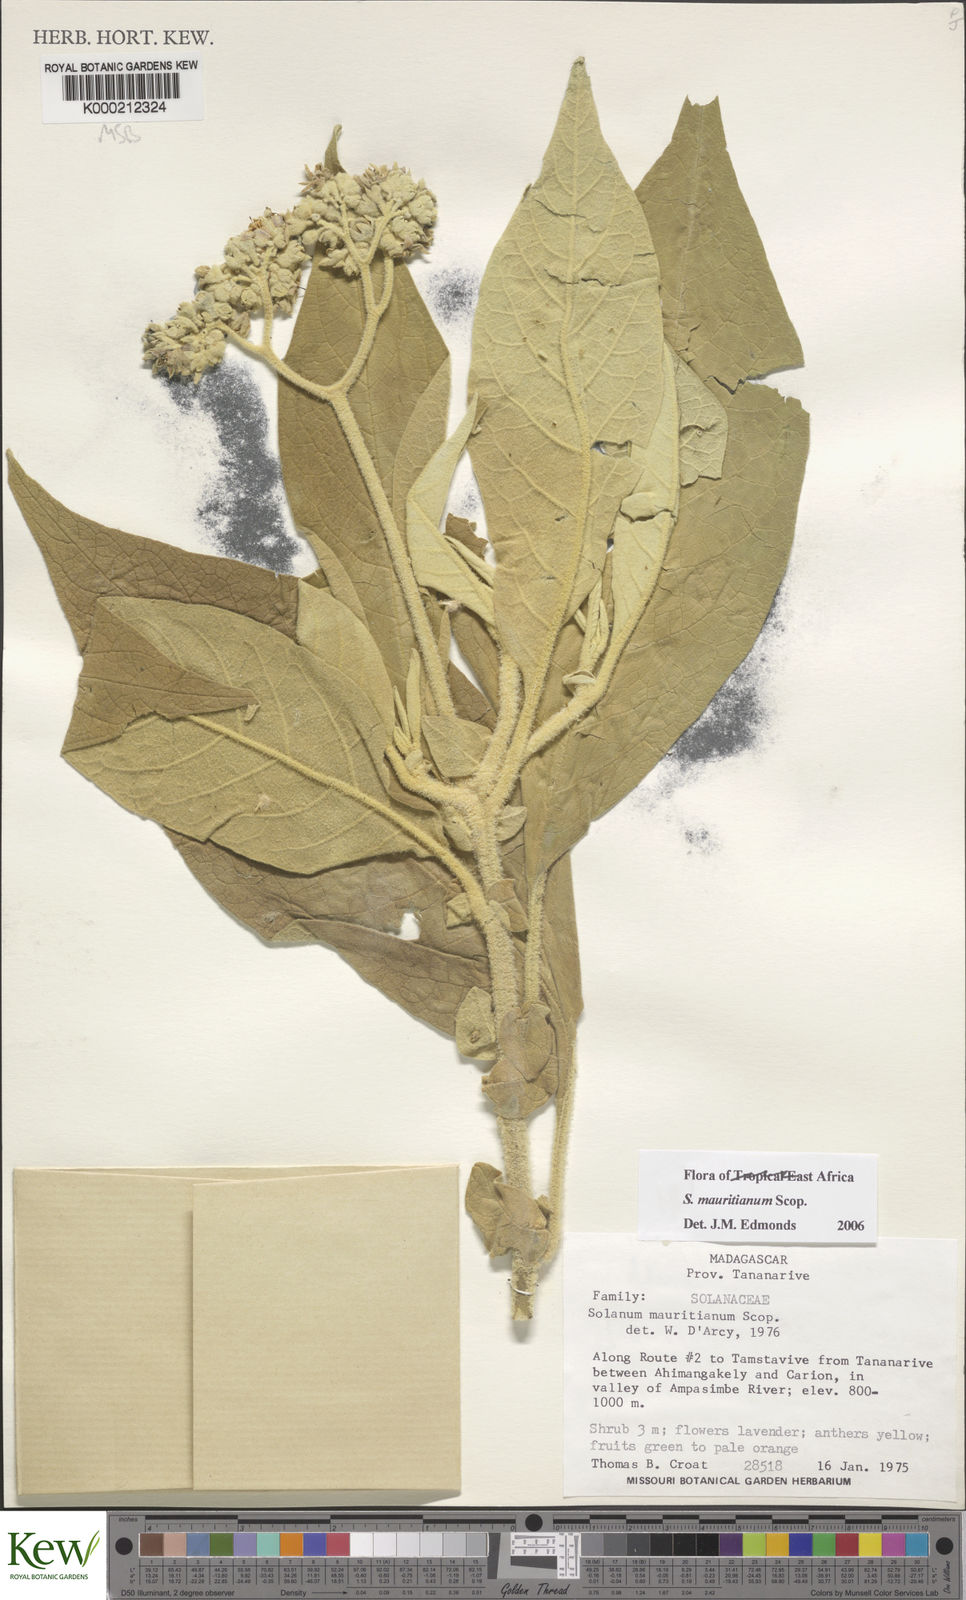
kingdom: Plantae
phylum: Tracheophyta
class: Magnoliopsida
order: Solanales
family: Solanaceae
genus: Solanum
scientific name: Solanum mauritianum
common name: Earleaf nightshade
